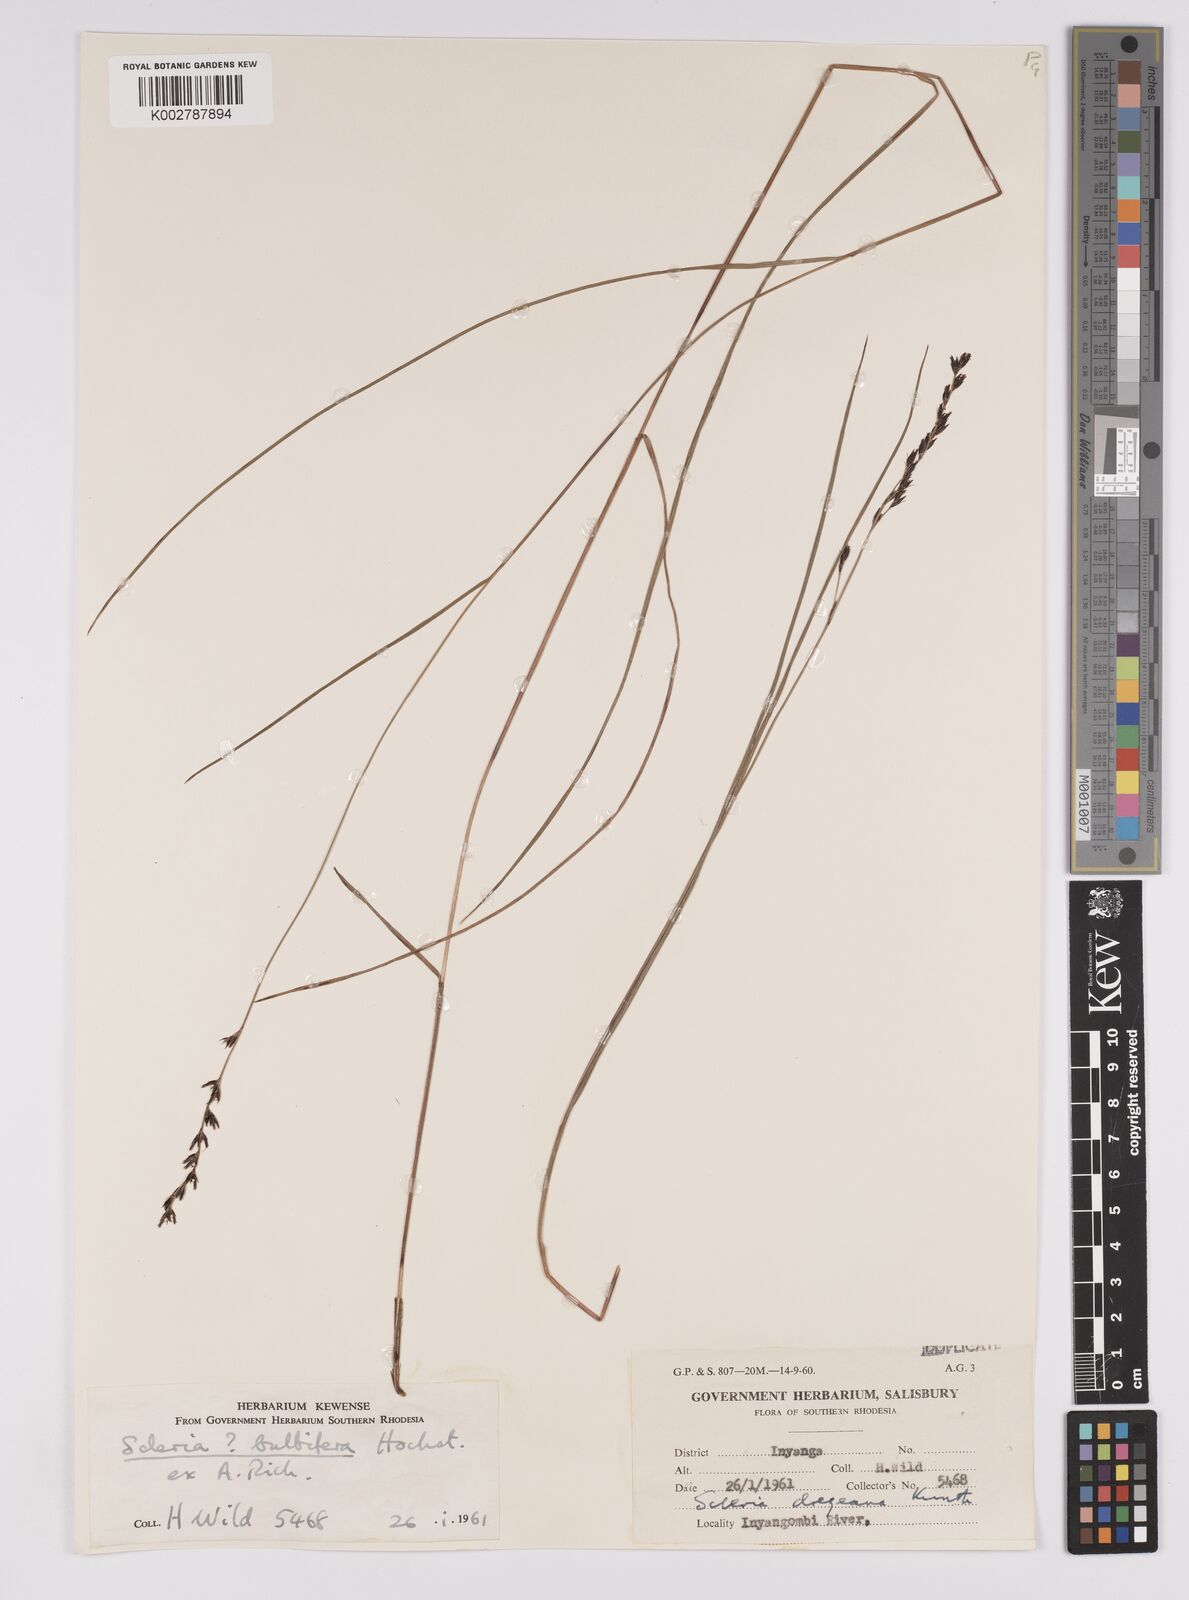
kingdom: Plantae
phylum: Tracheophyta
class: Liliopsida
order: Poales
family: Cyperaceae
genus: Scleria
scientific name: Scleria bulbifera
